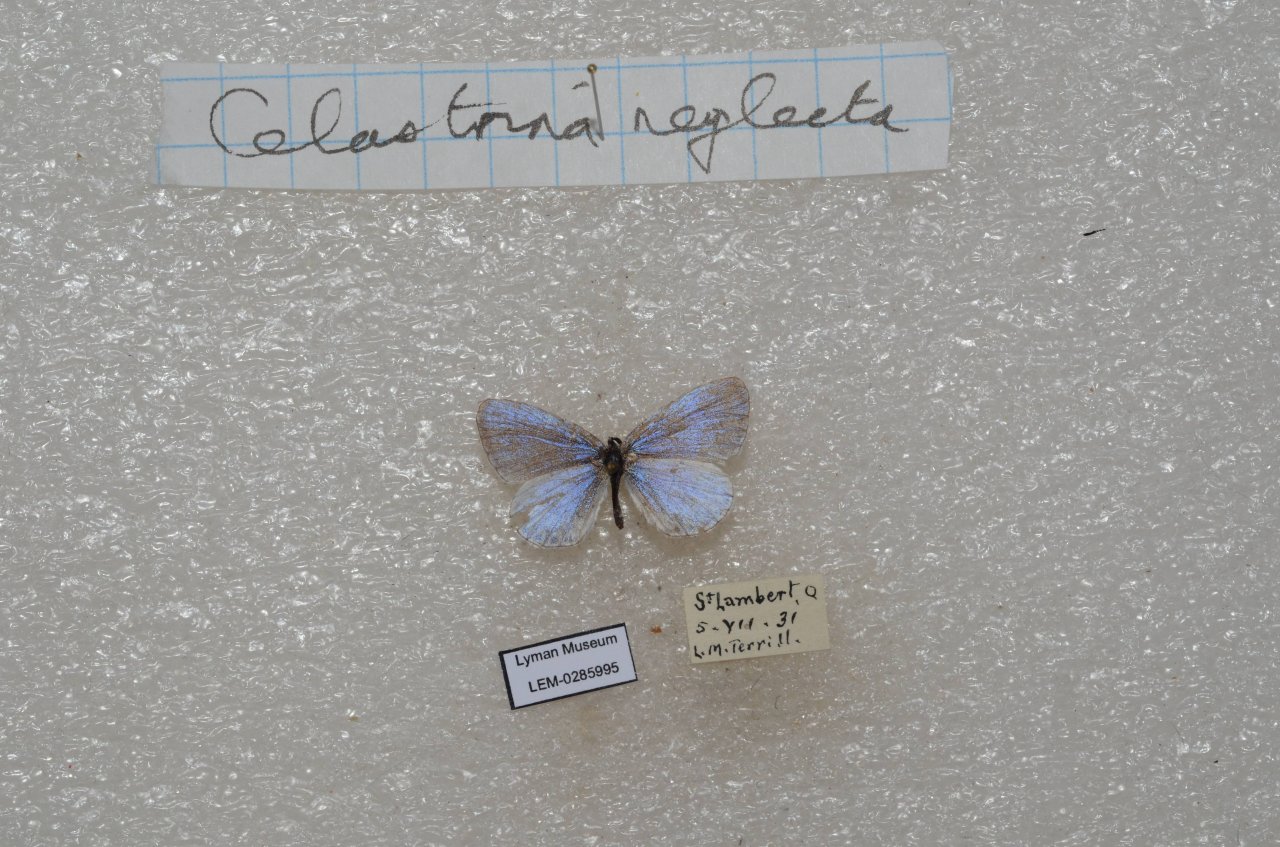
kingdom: Animalia
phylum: Arthropoda
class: Insecta
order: Lepidoptera
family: Lycaenidae
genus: Celastrina
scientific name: Celastrina lucia
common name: Northern Spring Azure
